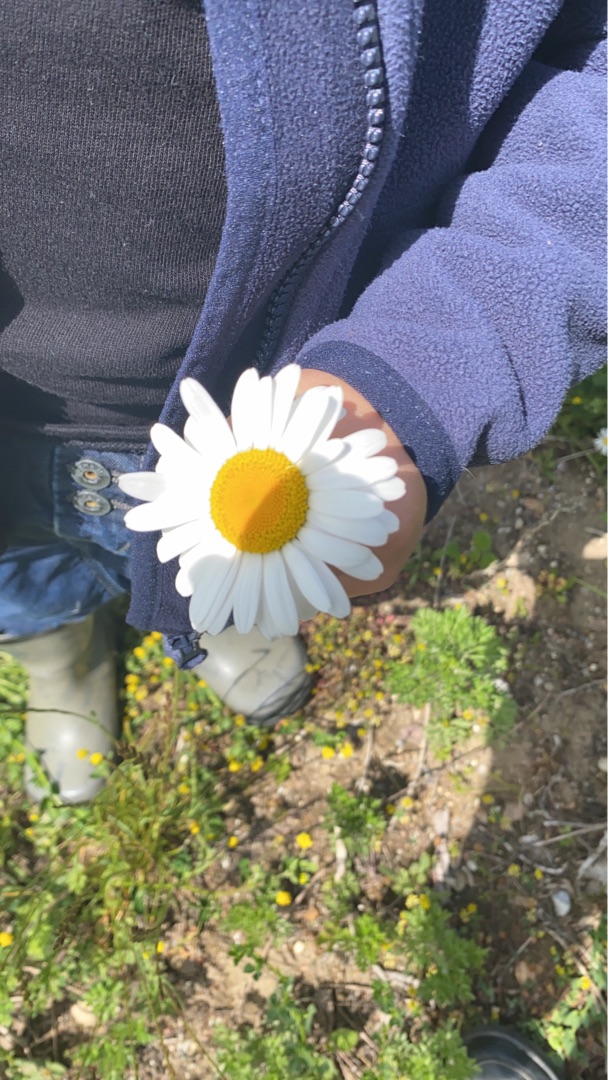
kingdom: Plantae
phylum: Tracheophyta
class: Magnoliopsida
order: Asterales
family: Asteraceae
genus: Leucanthemum
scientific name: Leucanthemum vulgare
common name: Hvid okseøje
